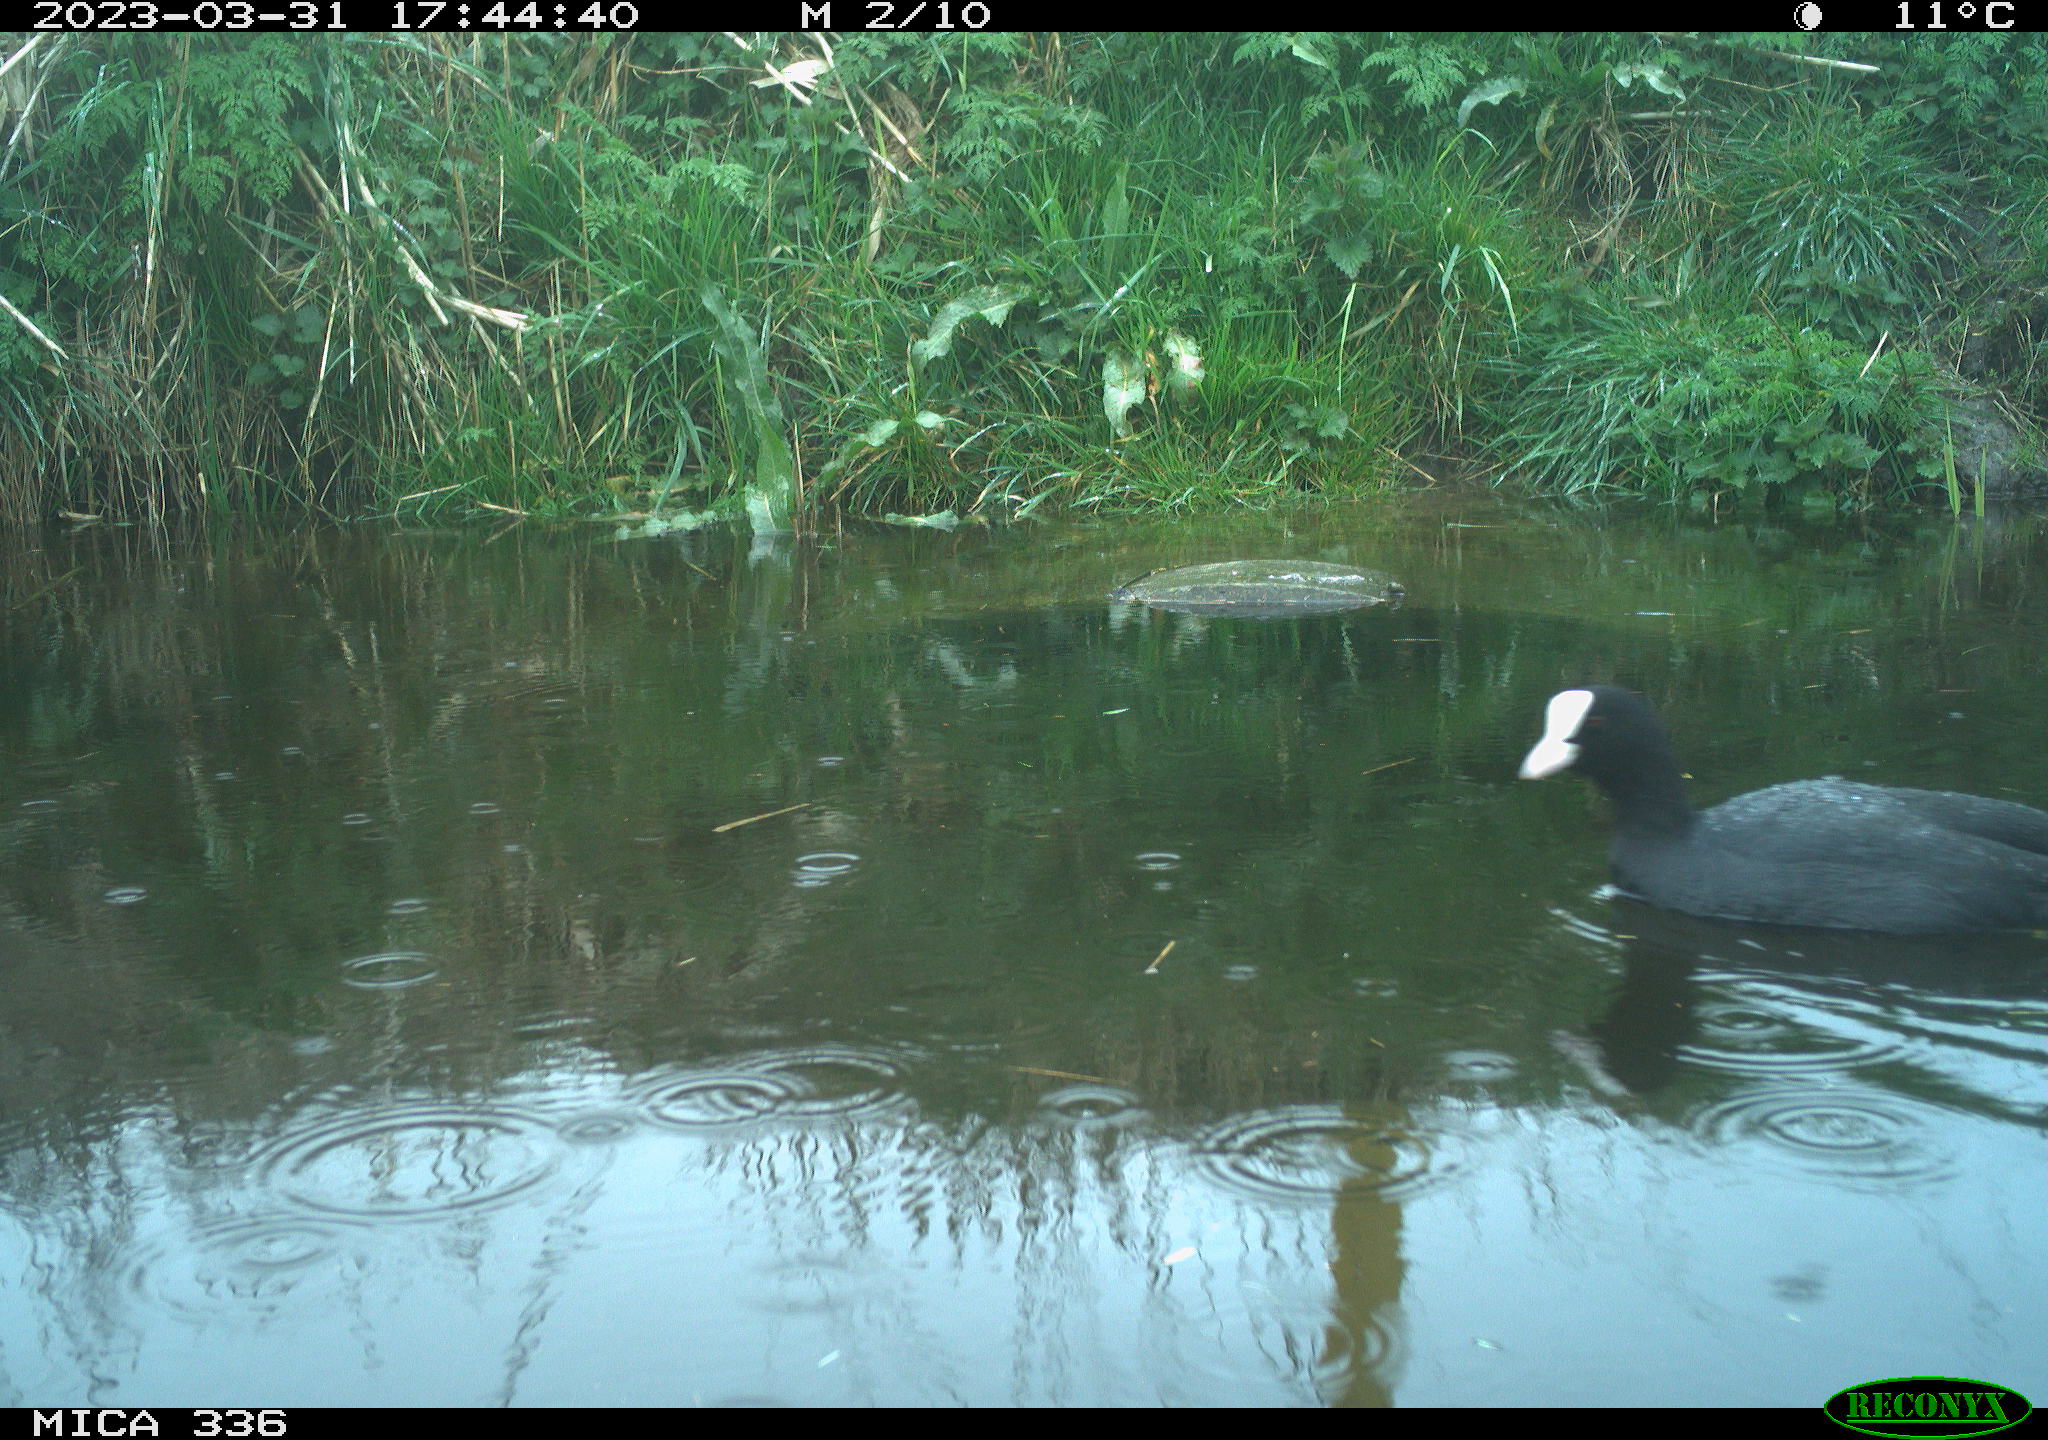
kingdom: Animalia
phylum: Chordata
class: Aves
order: Gruiformes
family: Rallidae
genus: Fulica
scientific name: Fulica atra
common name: Eurasian coot
